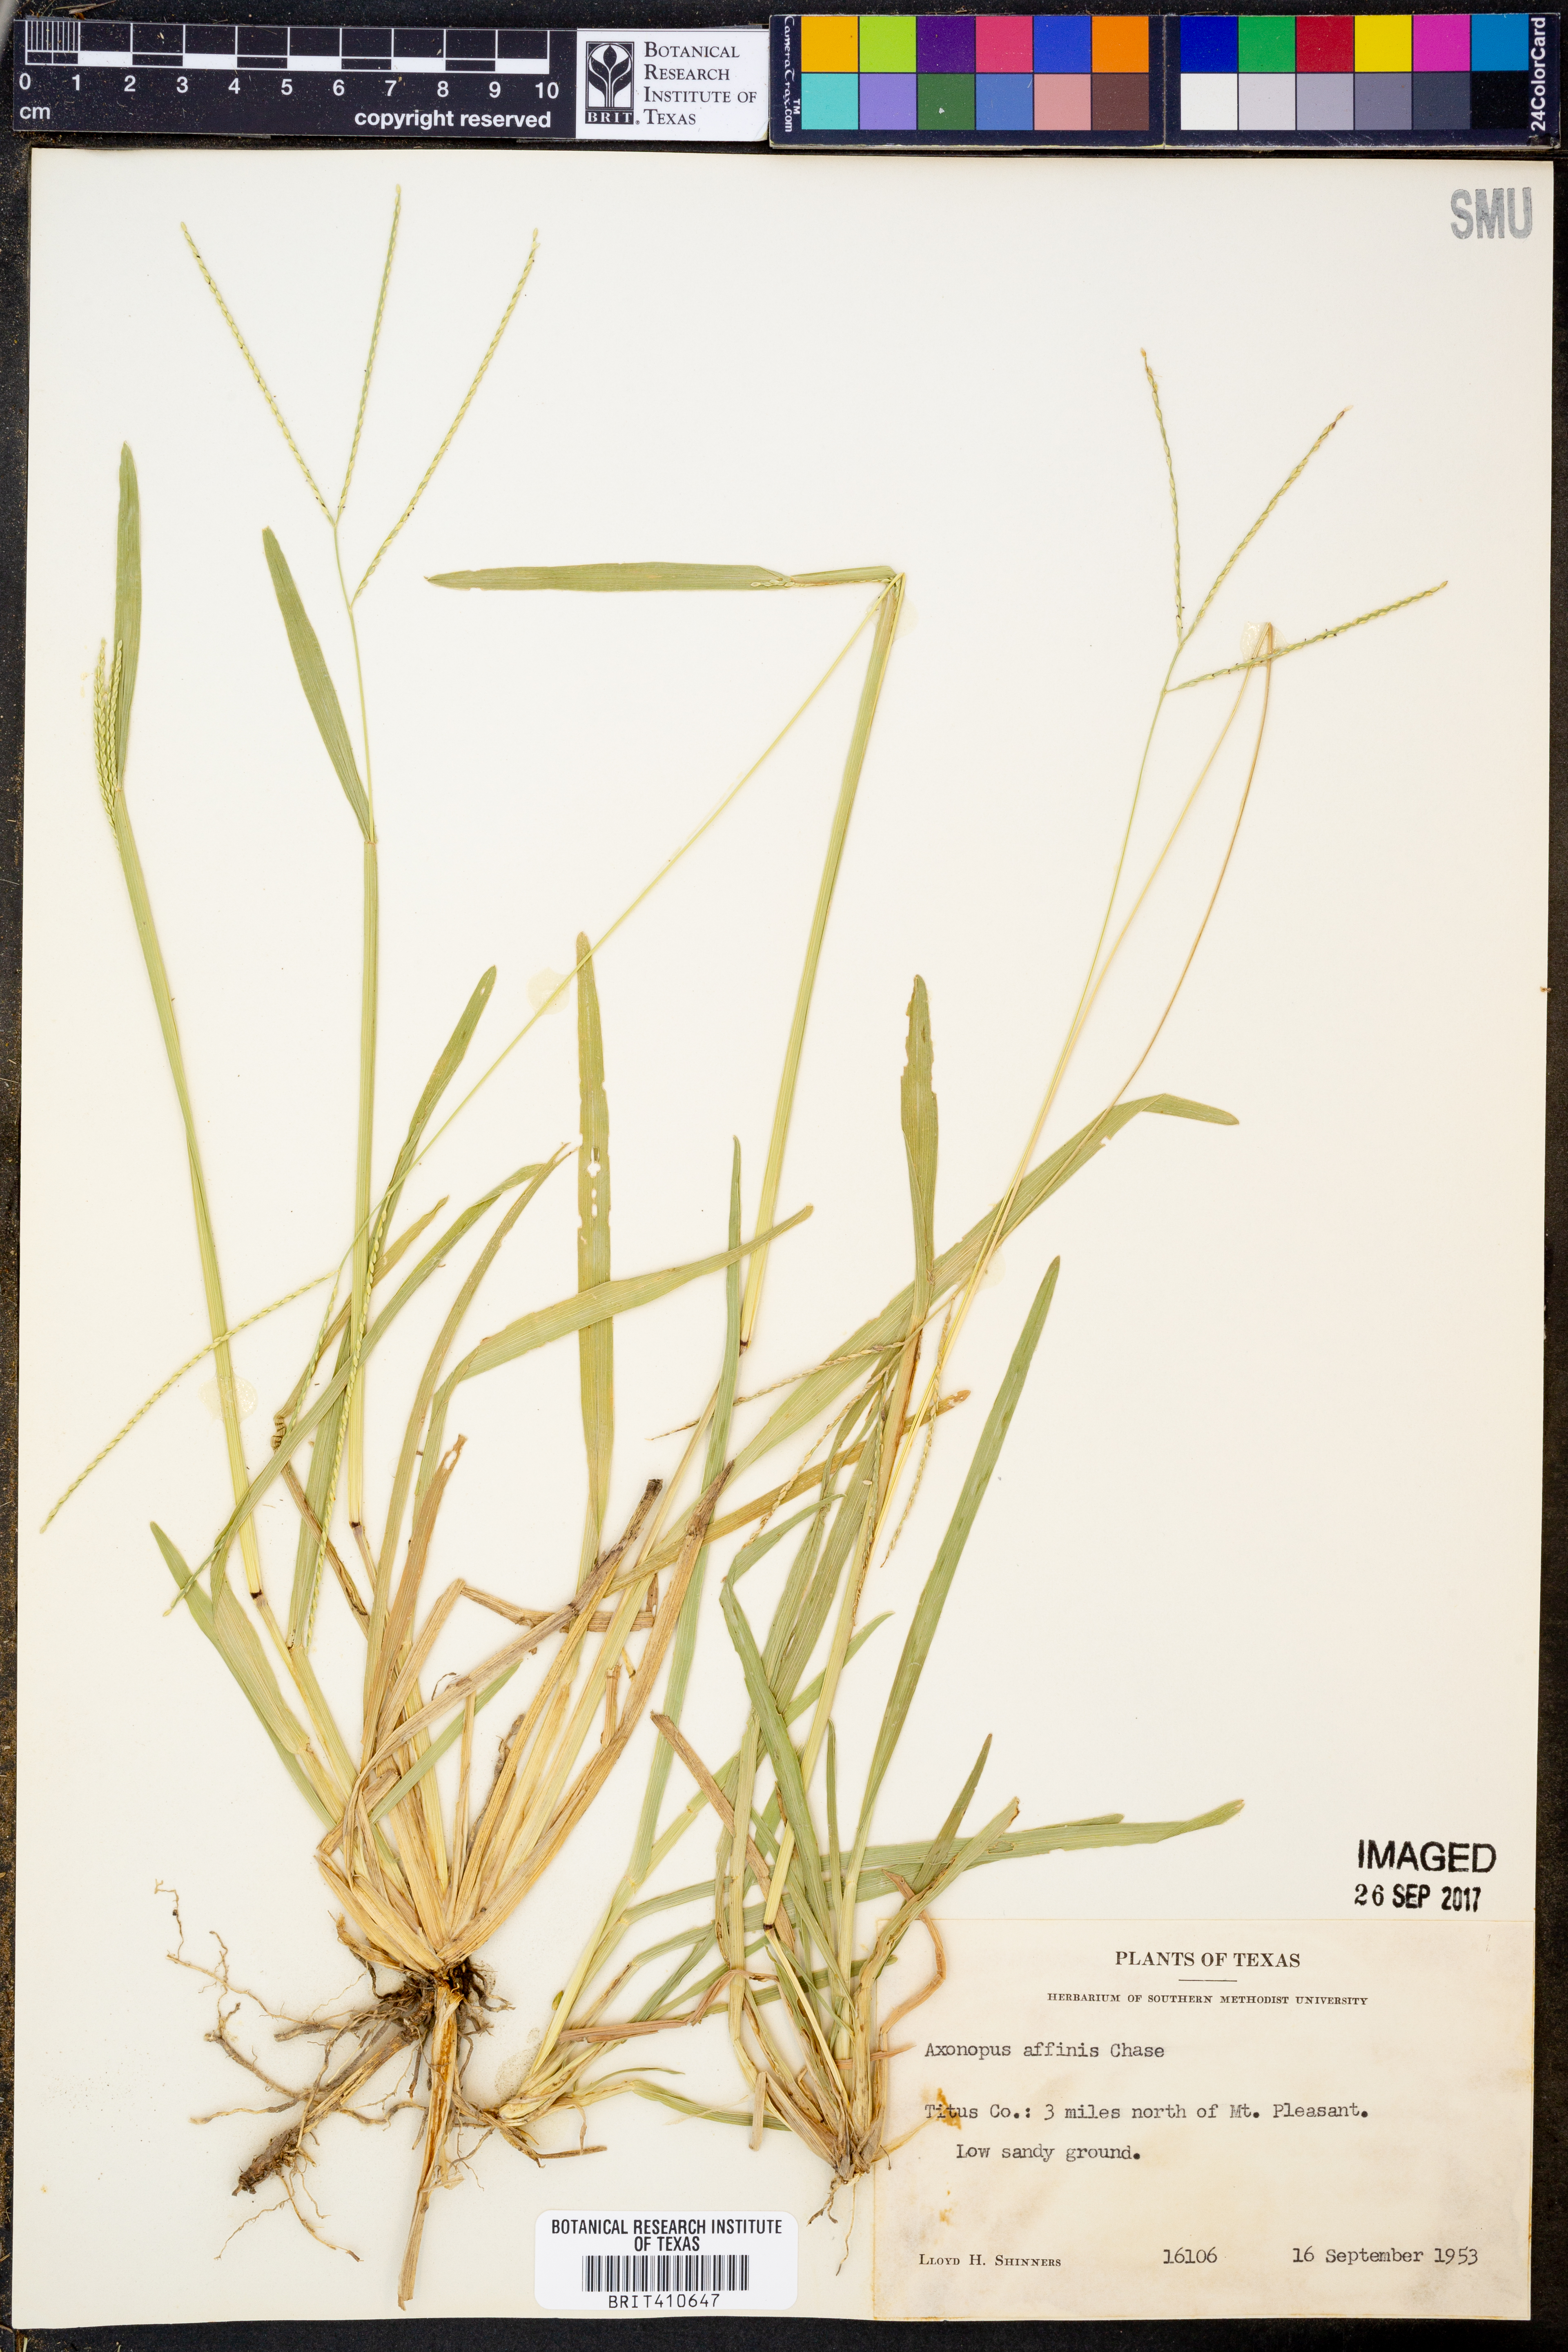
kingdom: Plantae
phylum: Tracheophyta
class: Liliopsida
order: Poales
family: Poaceae
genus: Axonopus
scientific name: Axonopus fissifolius
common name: Common carpetgrass
